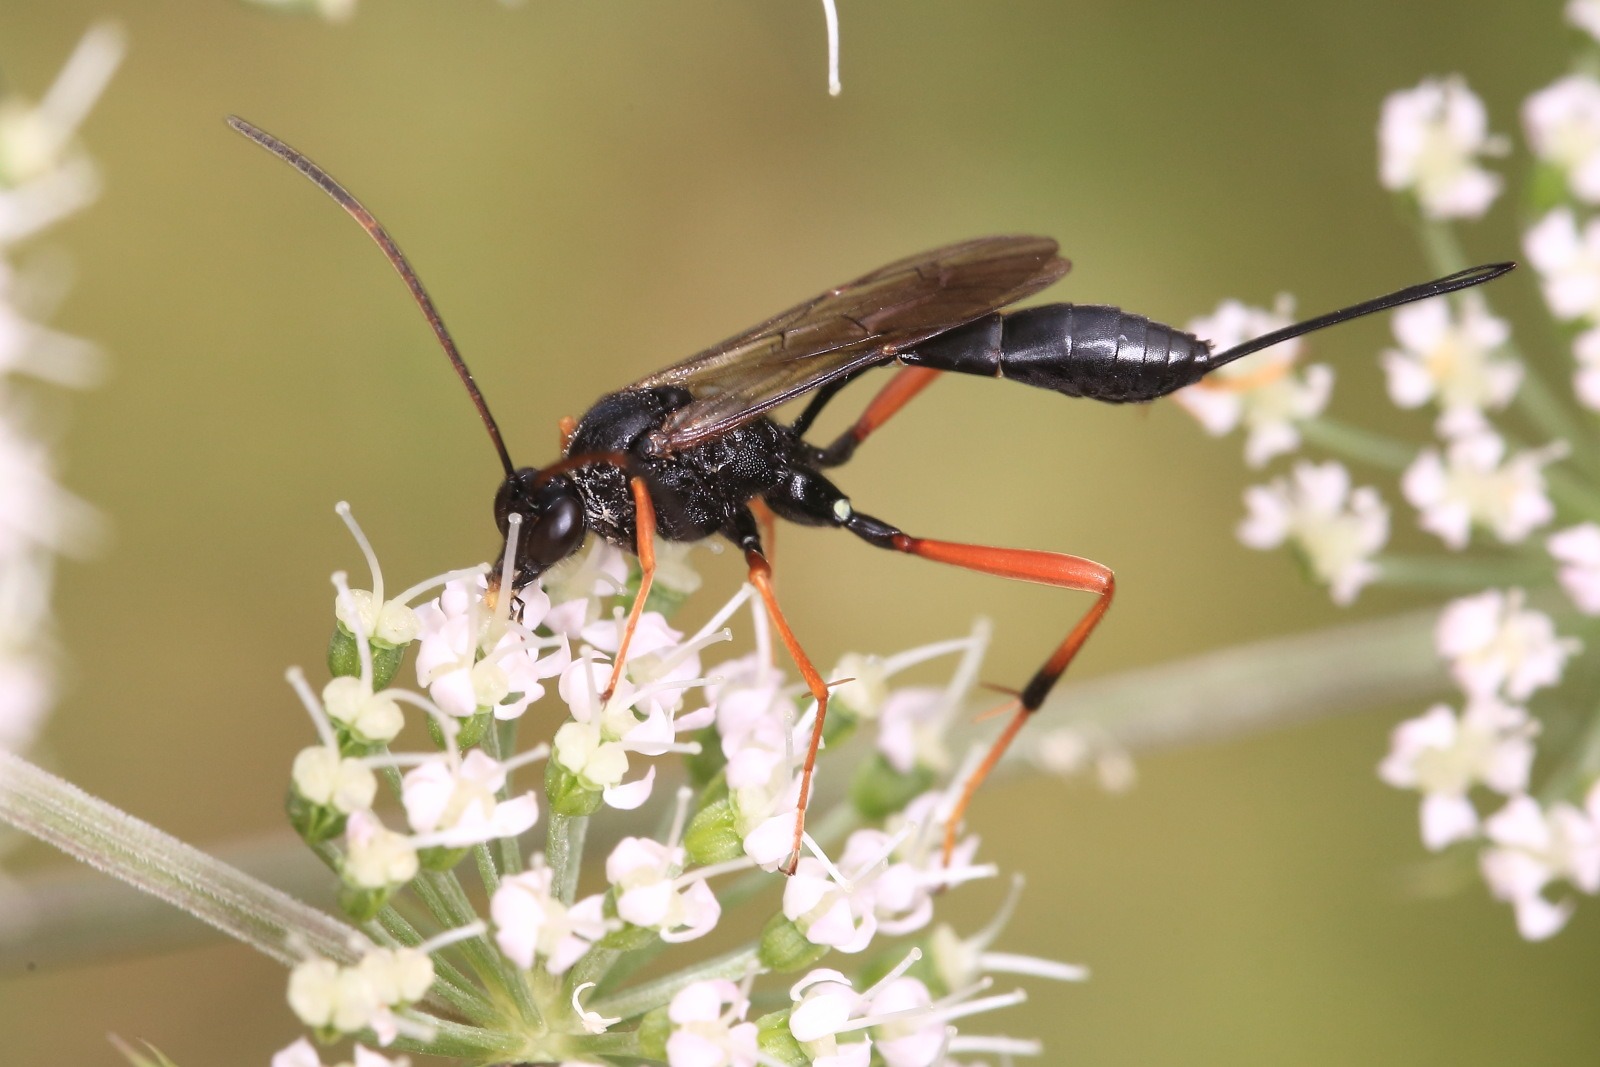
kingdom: Animalia
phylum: Arthropoda
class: Insecta
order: Hymenoptera
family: Ichneumonidae
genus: Acroricnus
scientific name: Acroricnus stylator
